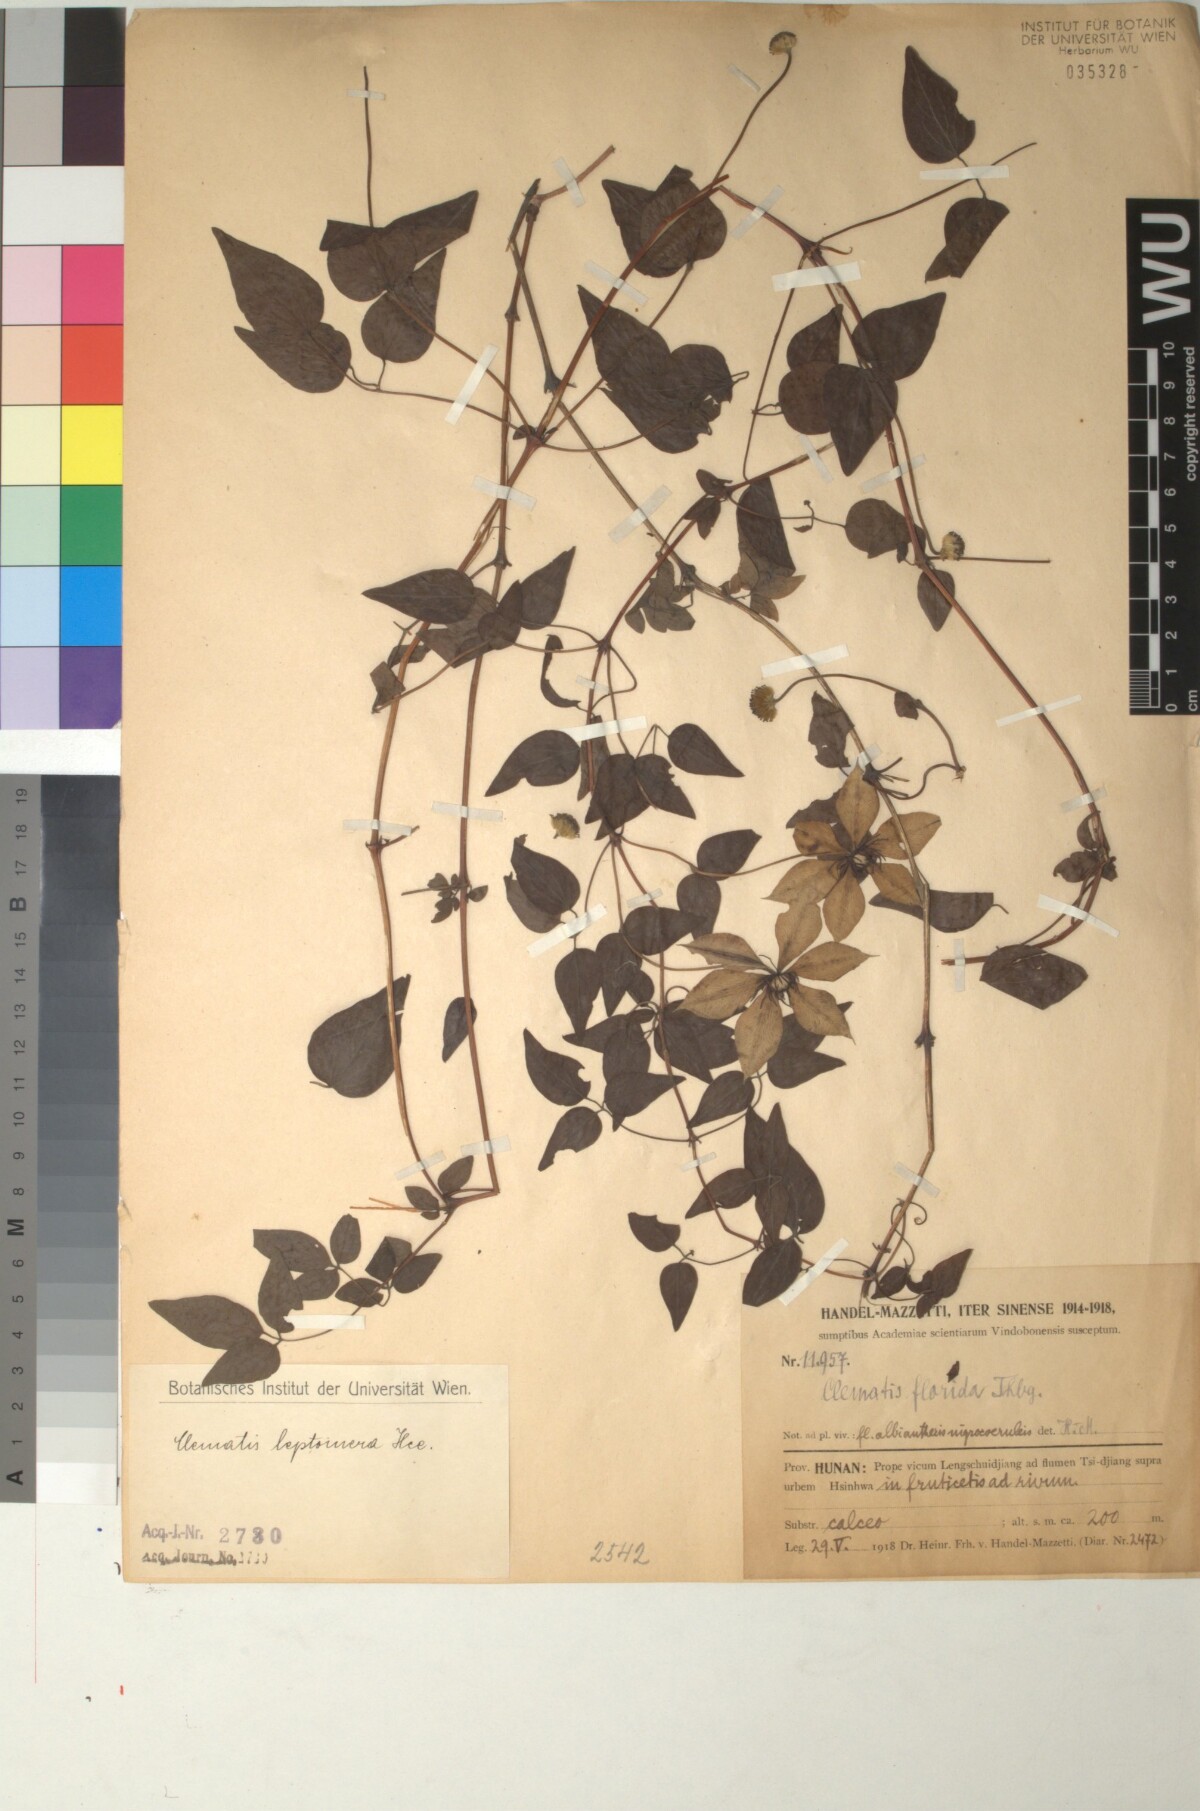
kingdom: Plantae
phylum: Tracheophyta
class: Magnoliopsida
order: Ranunculales
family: Ranunculaceae
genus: Clematis
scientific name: Clematis xiangguiensis
